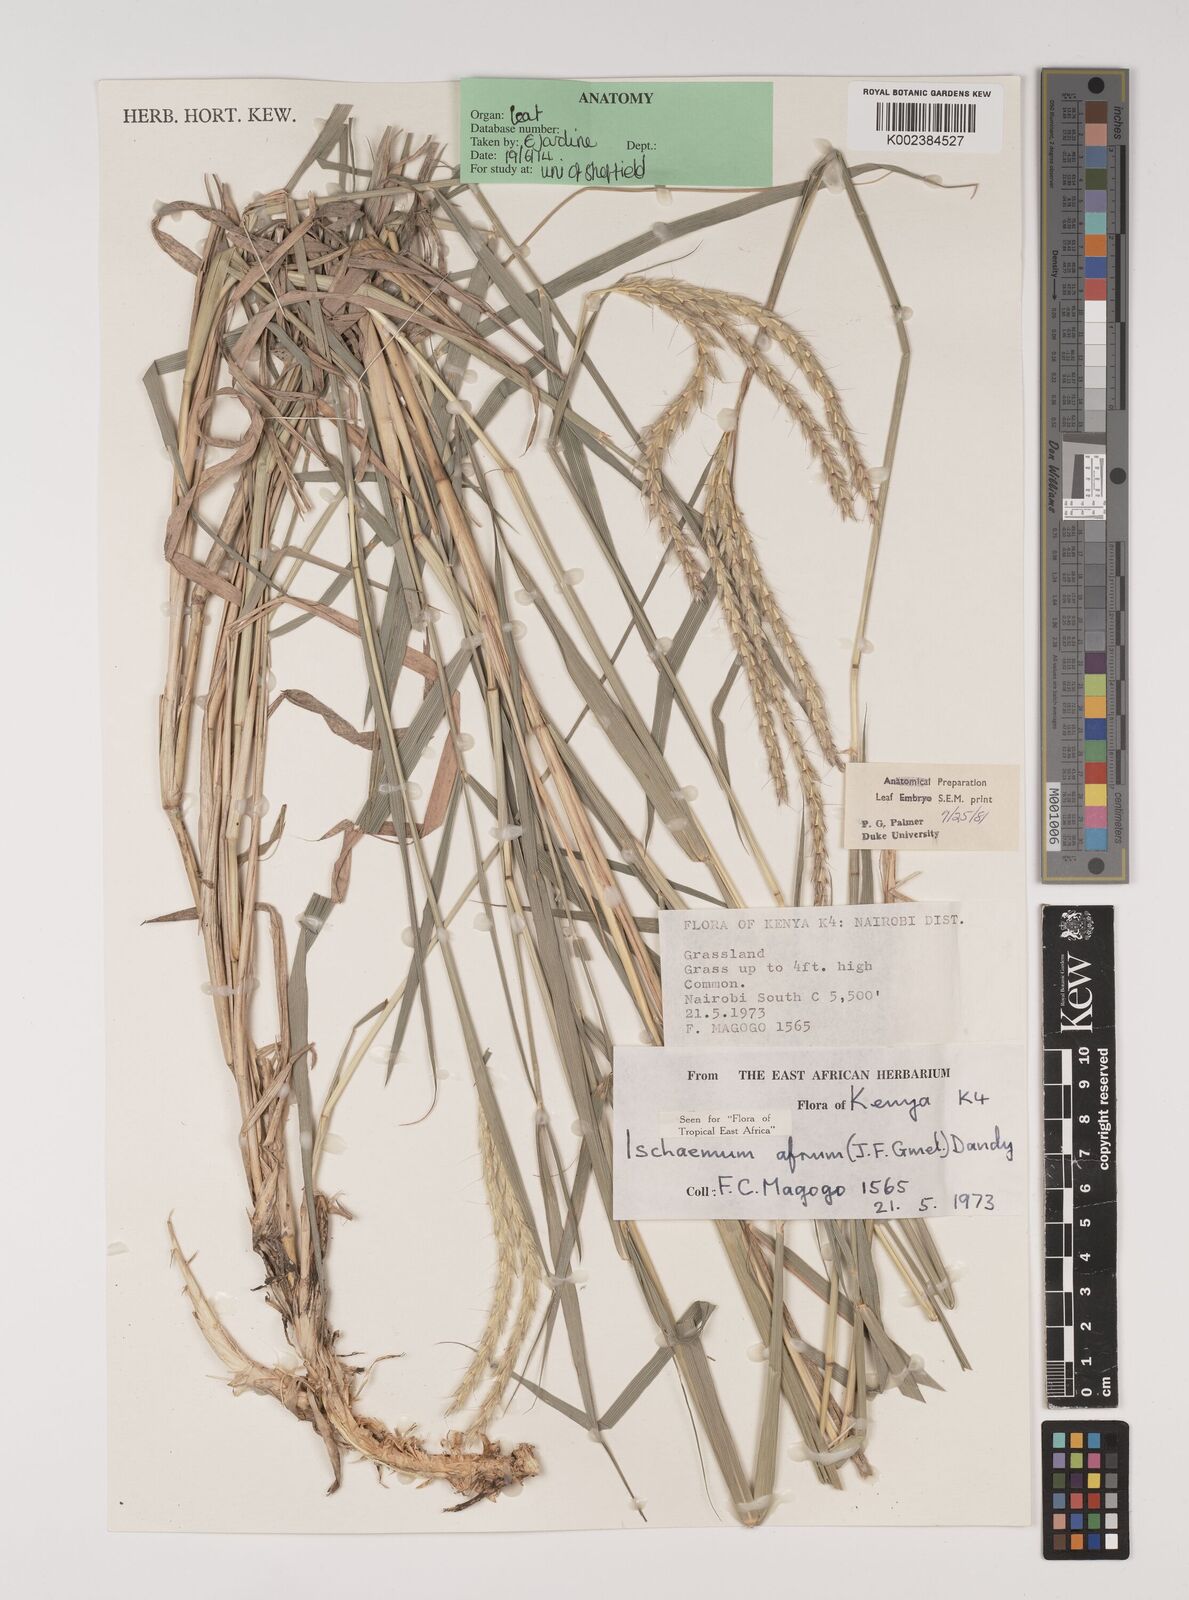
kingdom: Plantae
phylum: Tracheophyta
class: Liliopsida
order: Poales
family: Poaceae
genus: Ischaemum
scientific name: Ischaemum afrum
